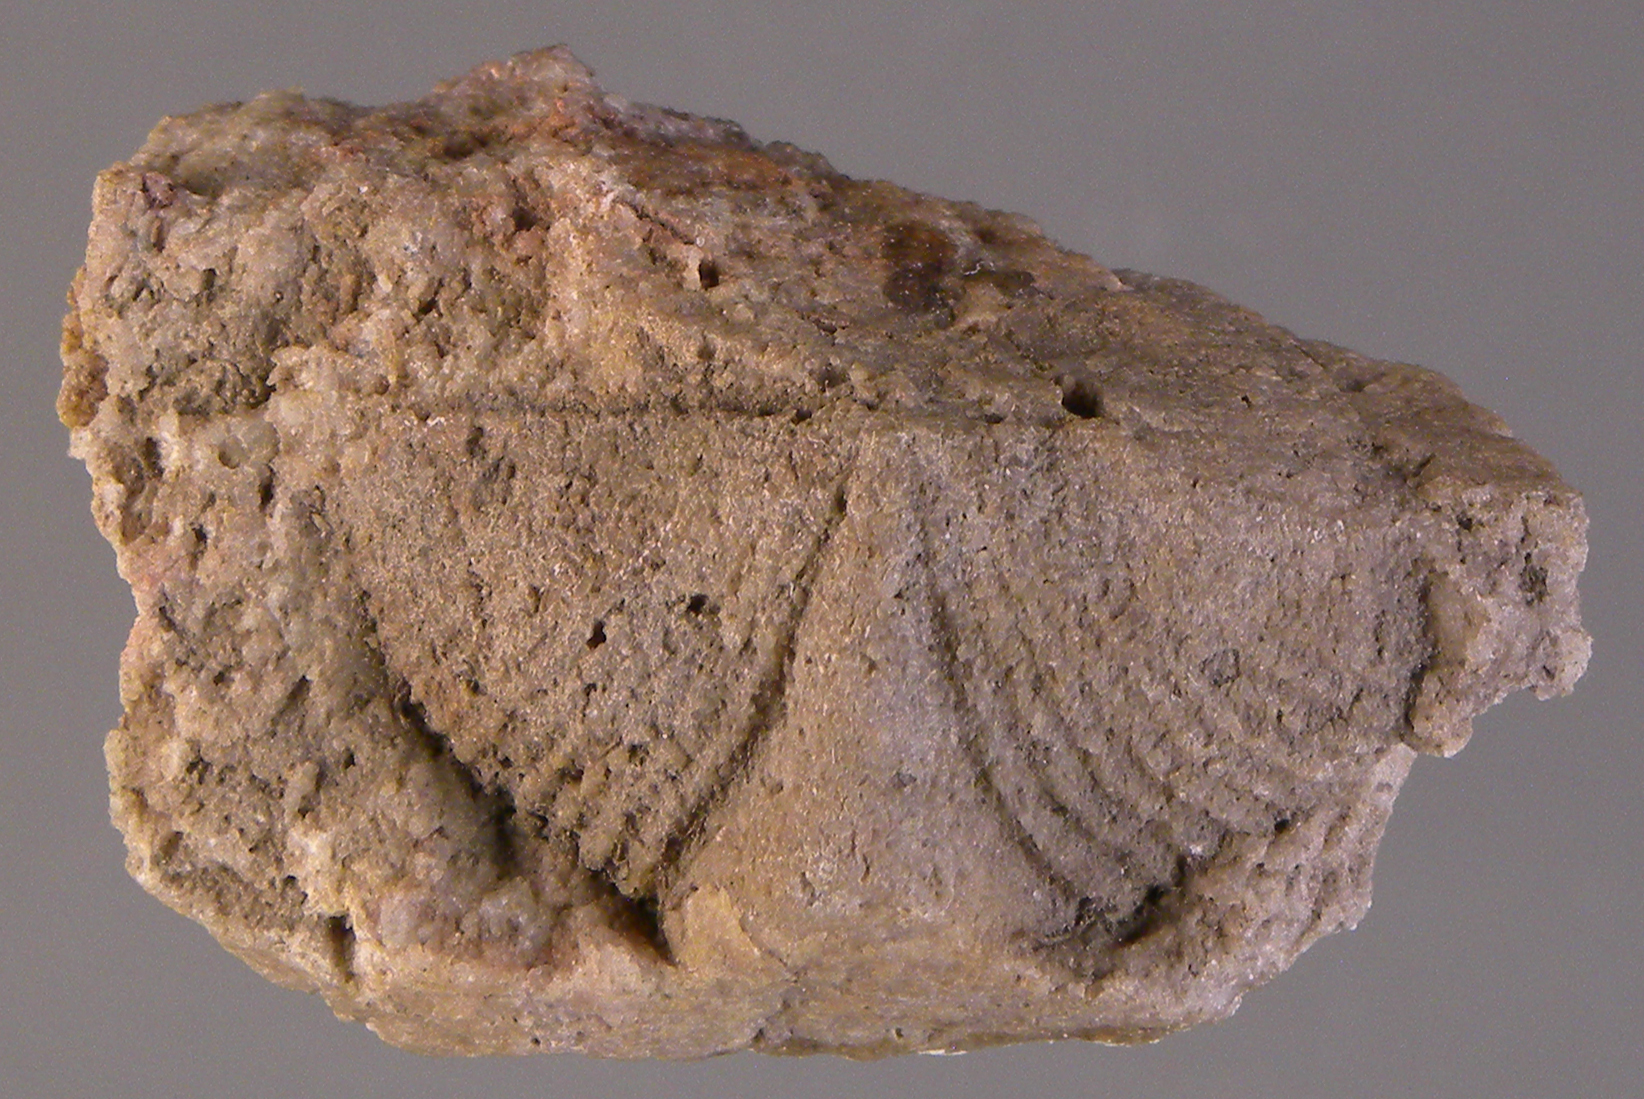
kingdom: Animalia
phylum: Brachiopoda
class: Rhynchonellata
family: Spinocyrtiidae
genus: Subcuspidella
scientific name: Subcuspidella
